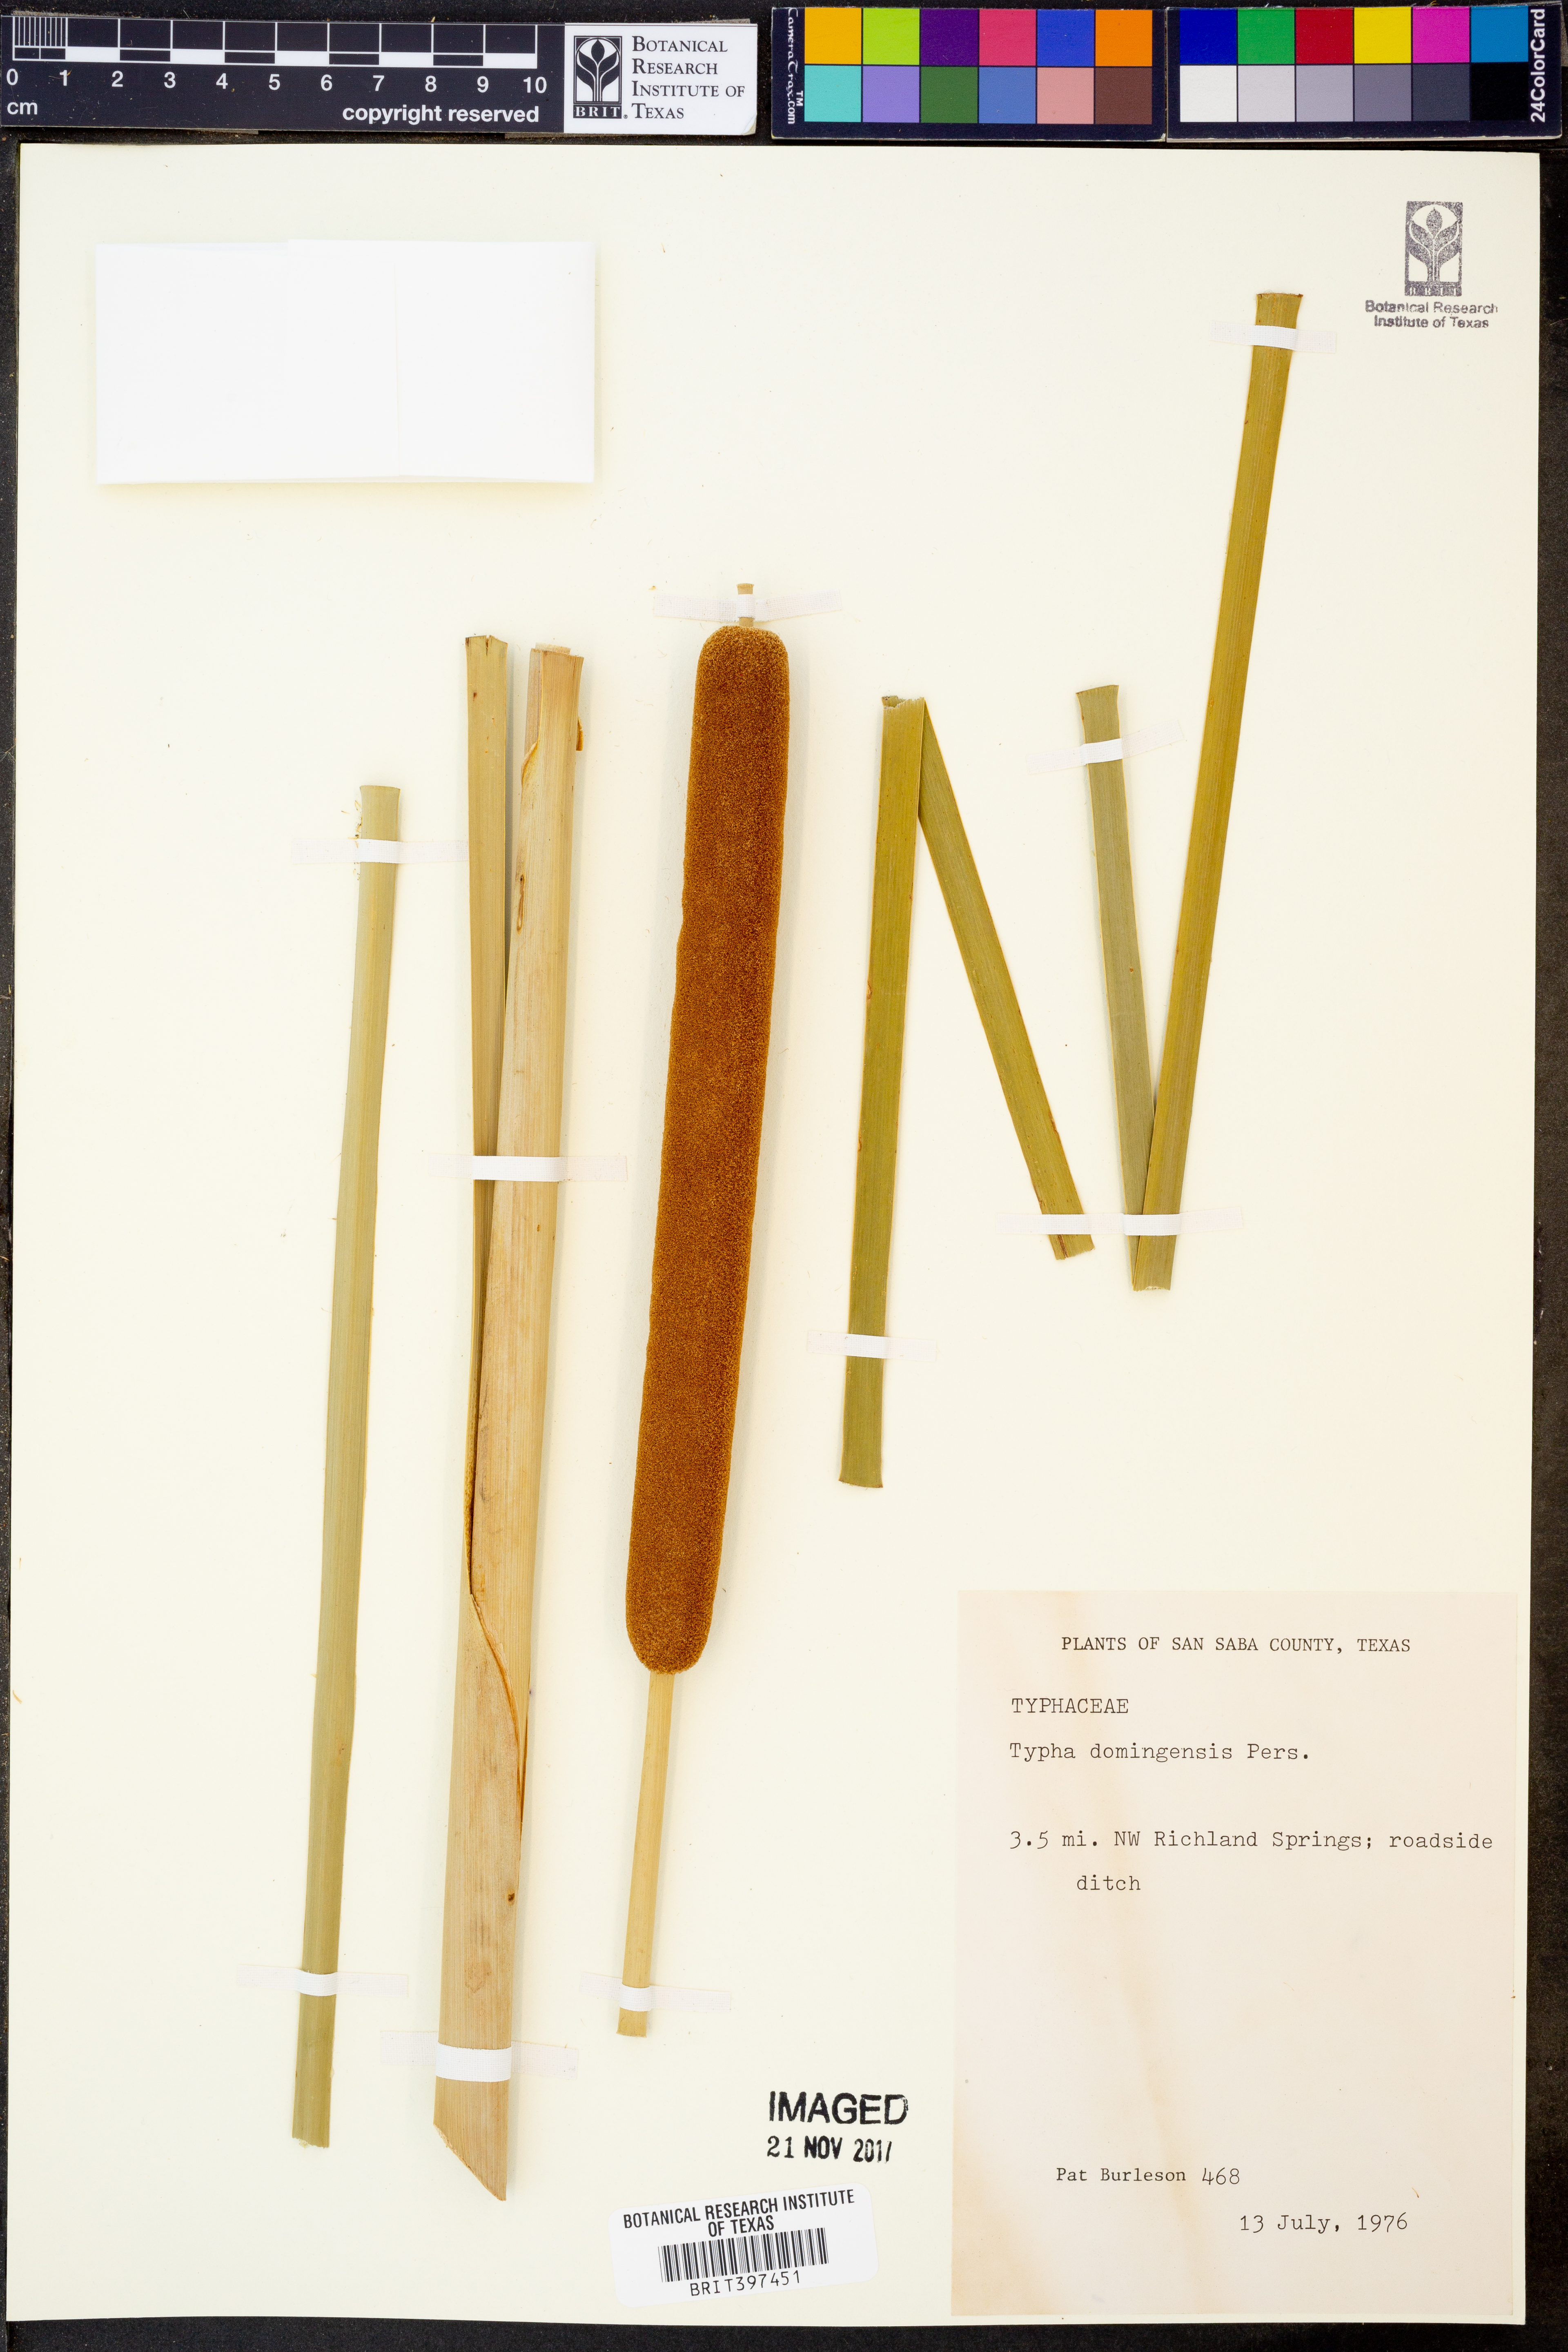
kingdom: Plantae
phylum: Tracheophyta
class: Liliopsida
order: Poales
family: Typhaceae
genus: Typha
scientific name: Typha domingensis
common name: Southern cattail
